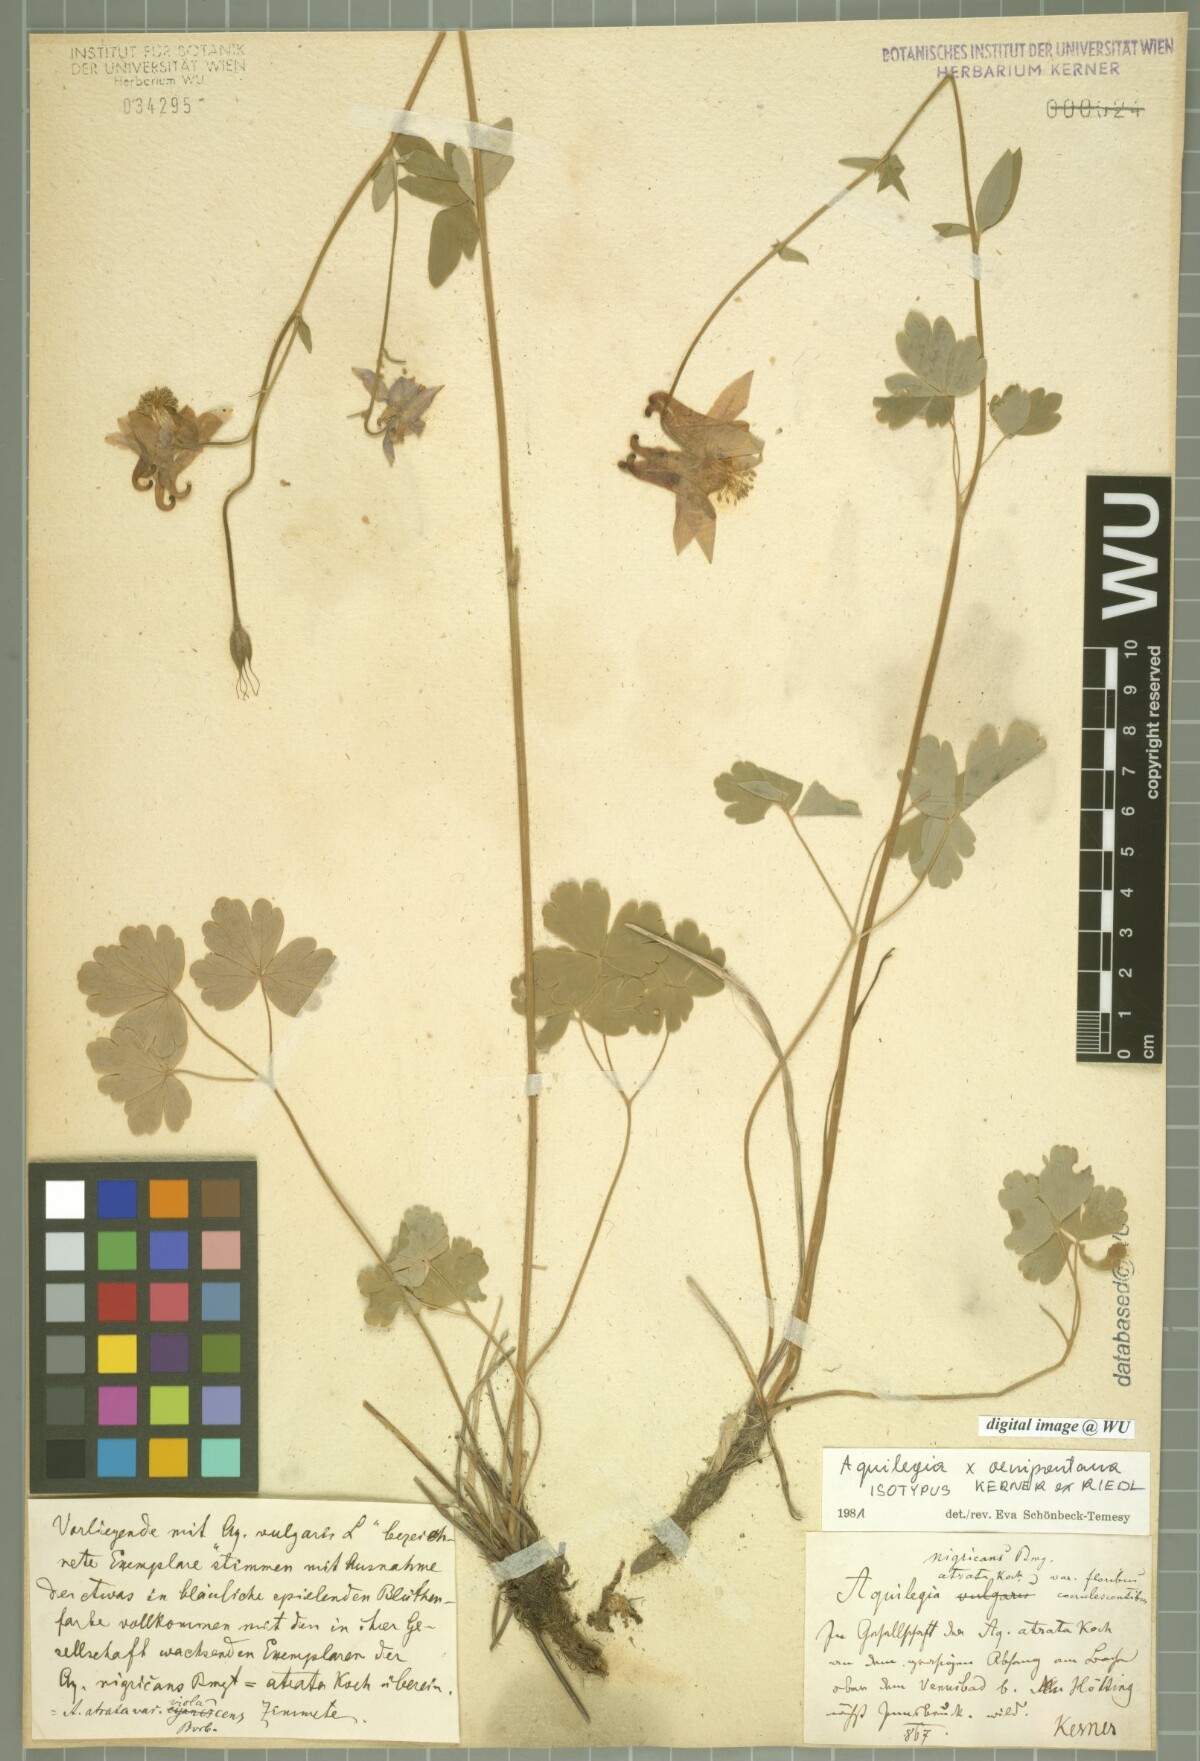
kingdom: Plantae
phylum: Tracheophyta
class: Magnoliopsida
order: Ranunculales
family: Ranunculaceae
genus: Aquilegia
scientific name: Aquilegia oenipontana
